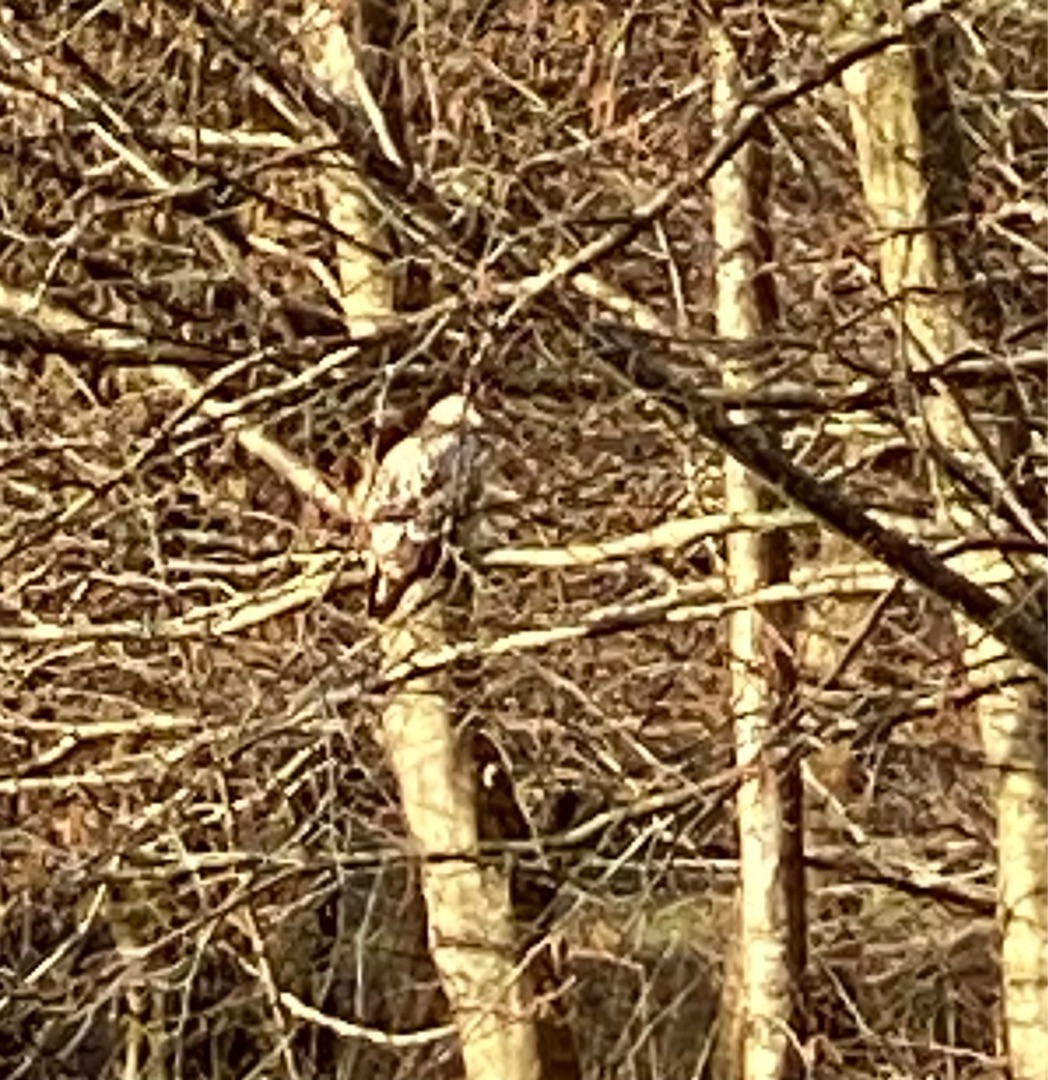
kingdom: Animalia
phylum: Chordata
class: Aves
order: Accipitriformes
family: Accipitridae
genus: Buteo
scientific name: Buteo buteo
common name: Musvåge
